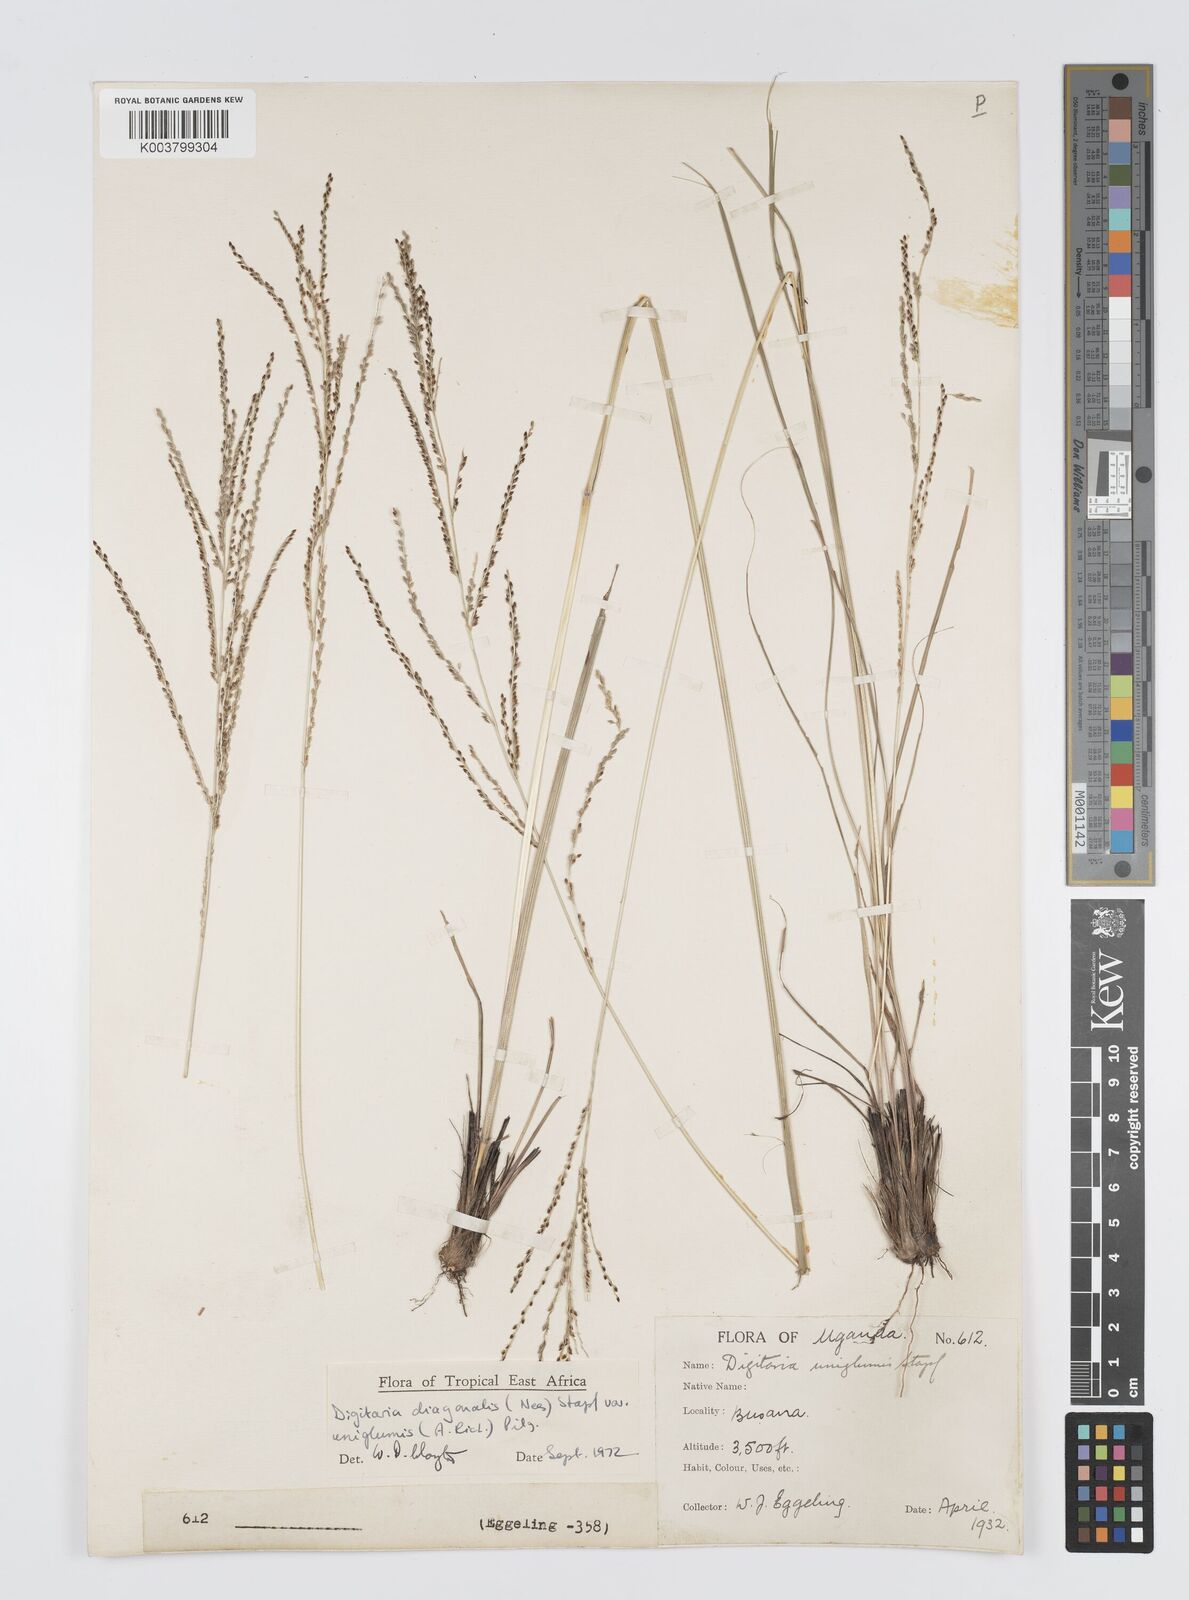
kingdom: Plantae
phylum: Tracheophyta
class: Liliopsida
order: Poales
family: Poaceae
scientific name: Poaceae
